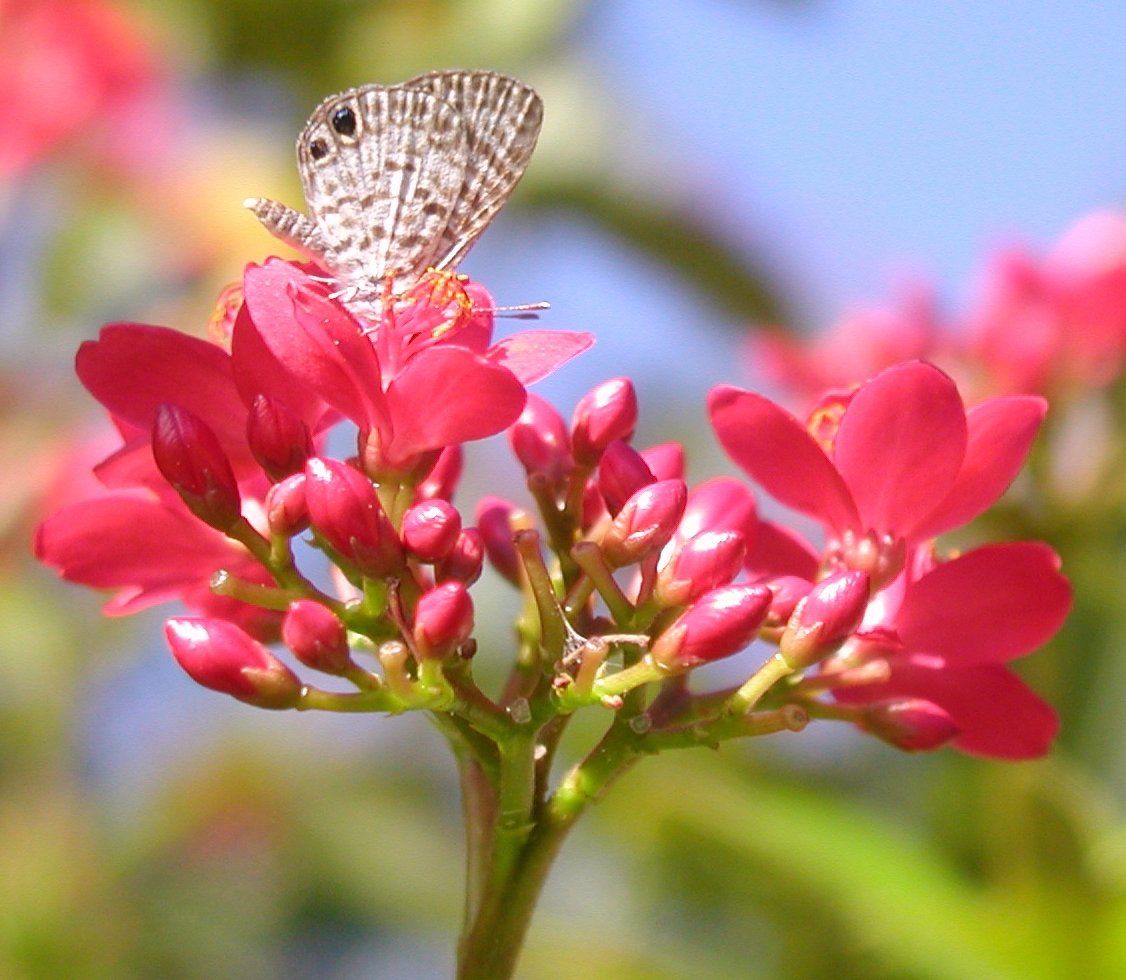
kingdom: Animalia
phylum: Arthropoda
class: Insecta
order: Lepidoptera
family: Lycaenidae
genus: Leptotes
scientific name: Leptotes cassius
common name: Cassius Blue
